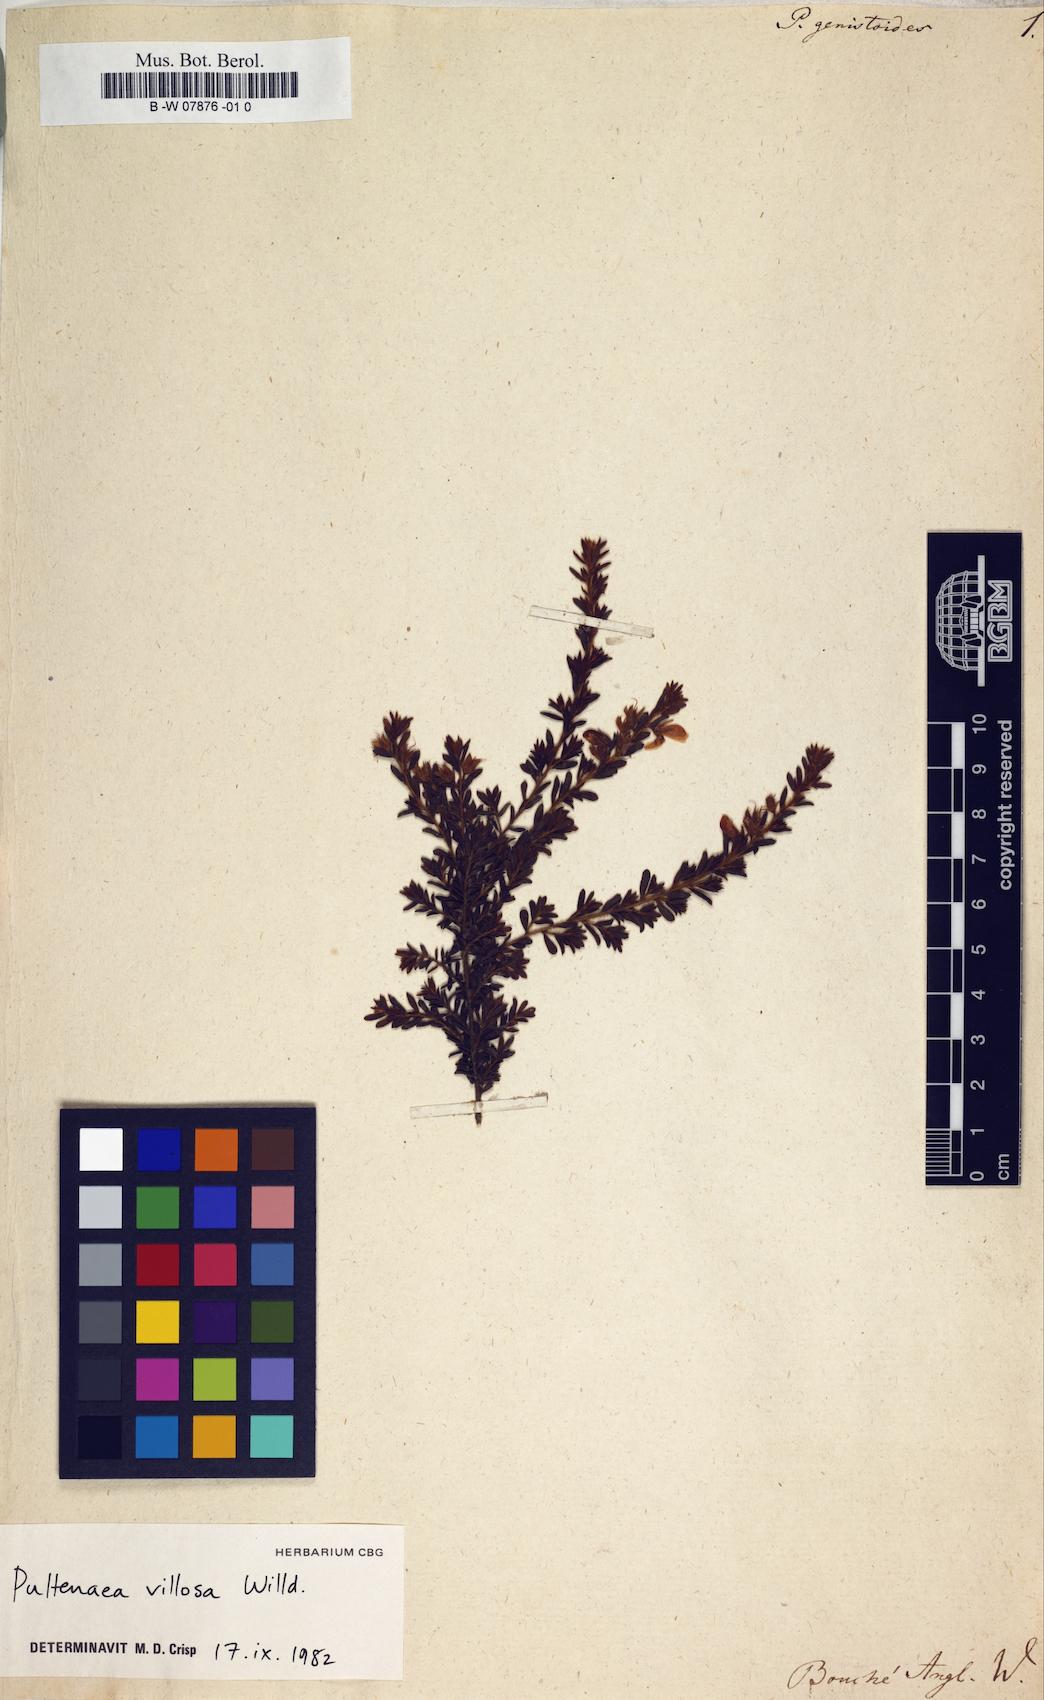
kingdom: Plantae
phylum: Tracheophyta
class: Magnoliopsida
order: Fabales
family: Fabaceae
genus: Latrobea
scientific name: Latrobea genistoides
